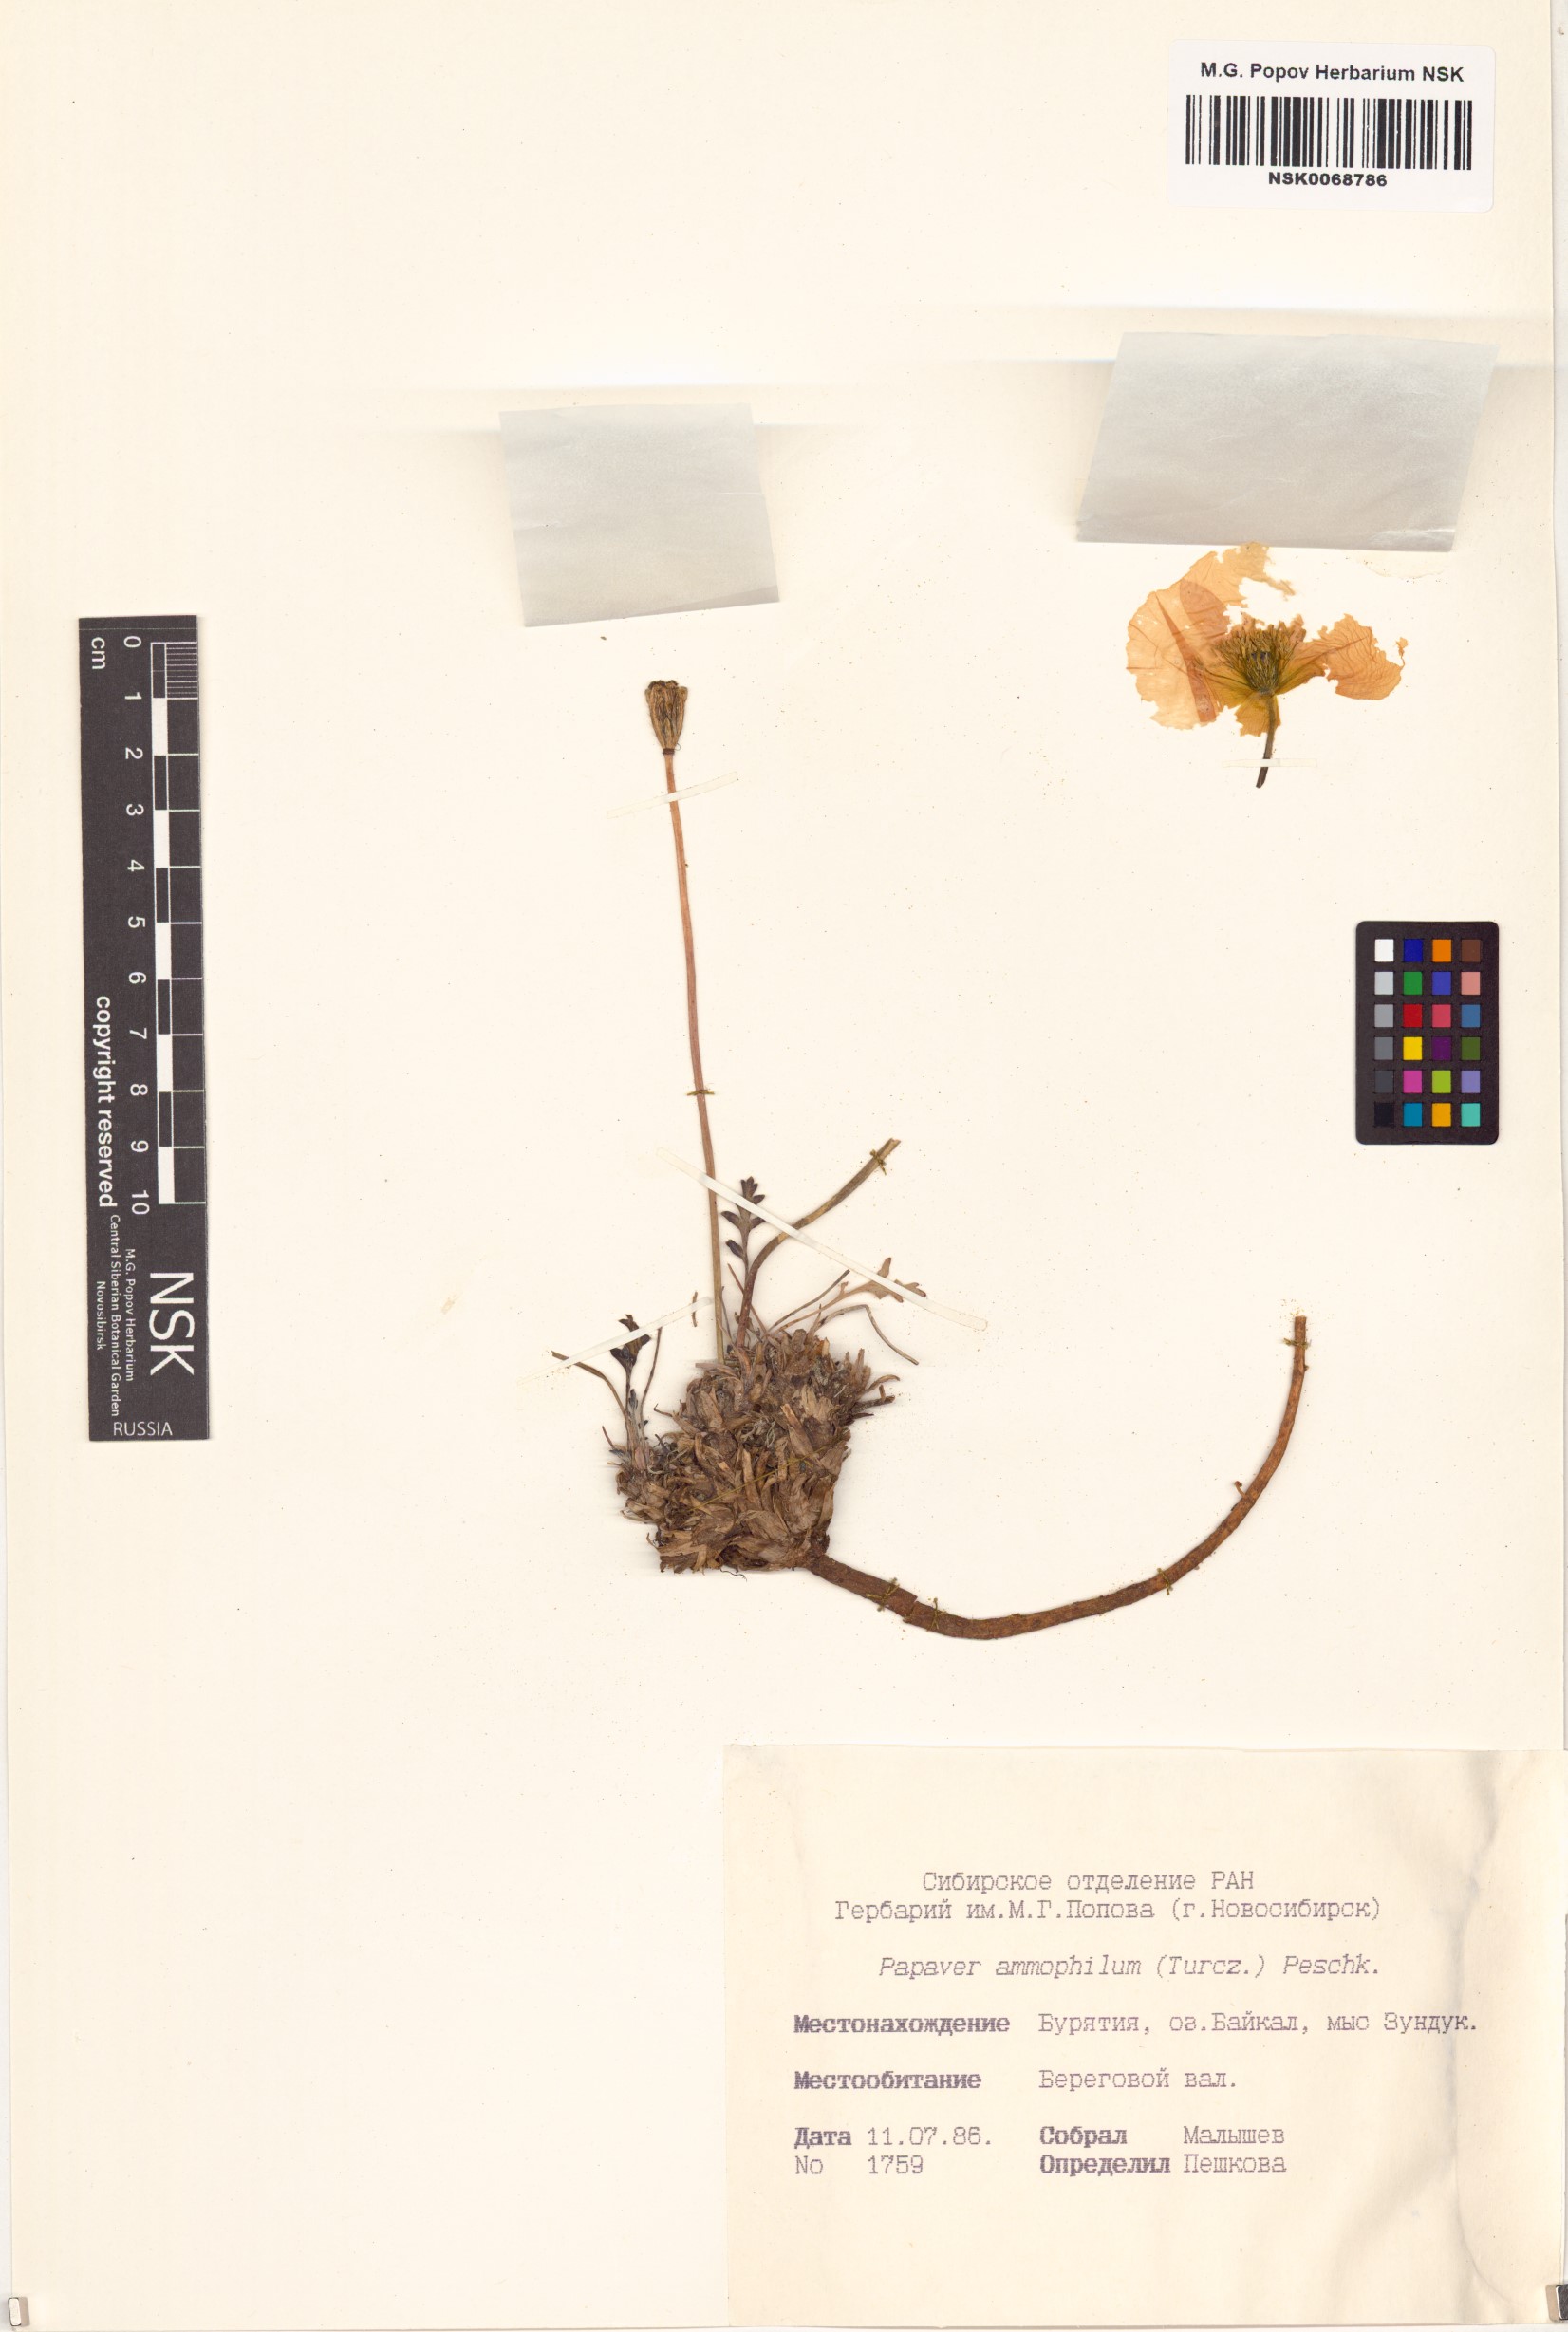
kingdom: Plantae
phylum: Tracheophyta
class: Magnoliopsida
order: Ranunculales
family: Papaveraceae
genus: Papaver
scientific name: Papaver nudicaule
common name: Arctic poppy
